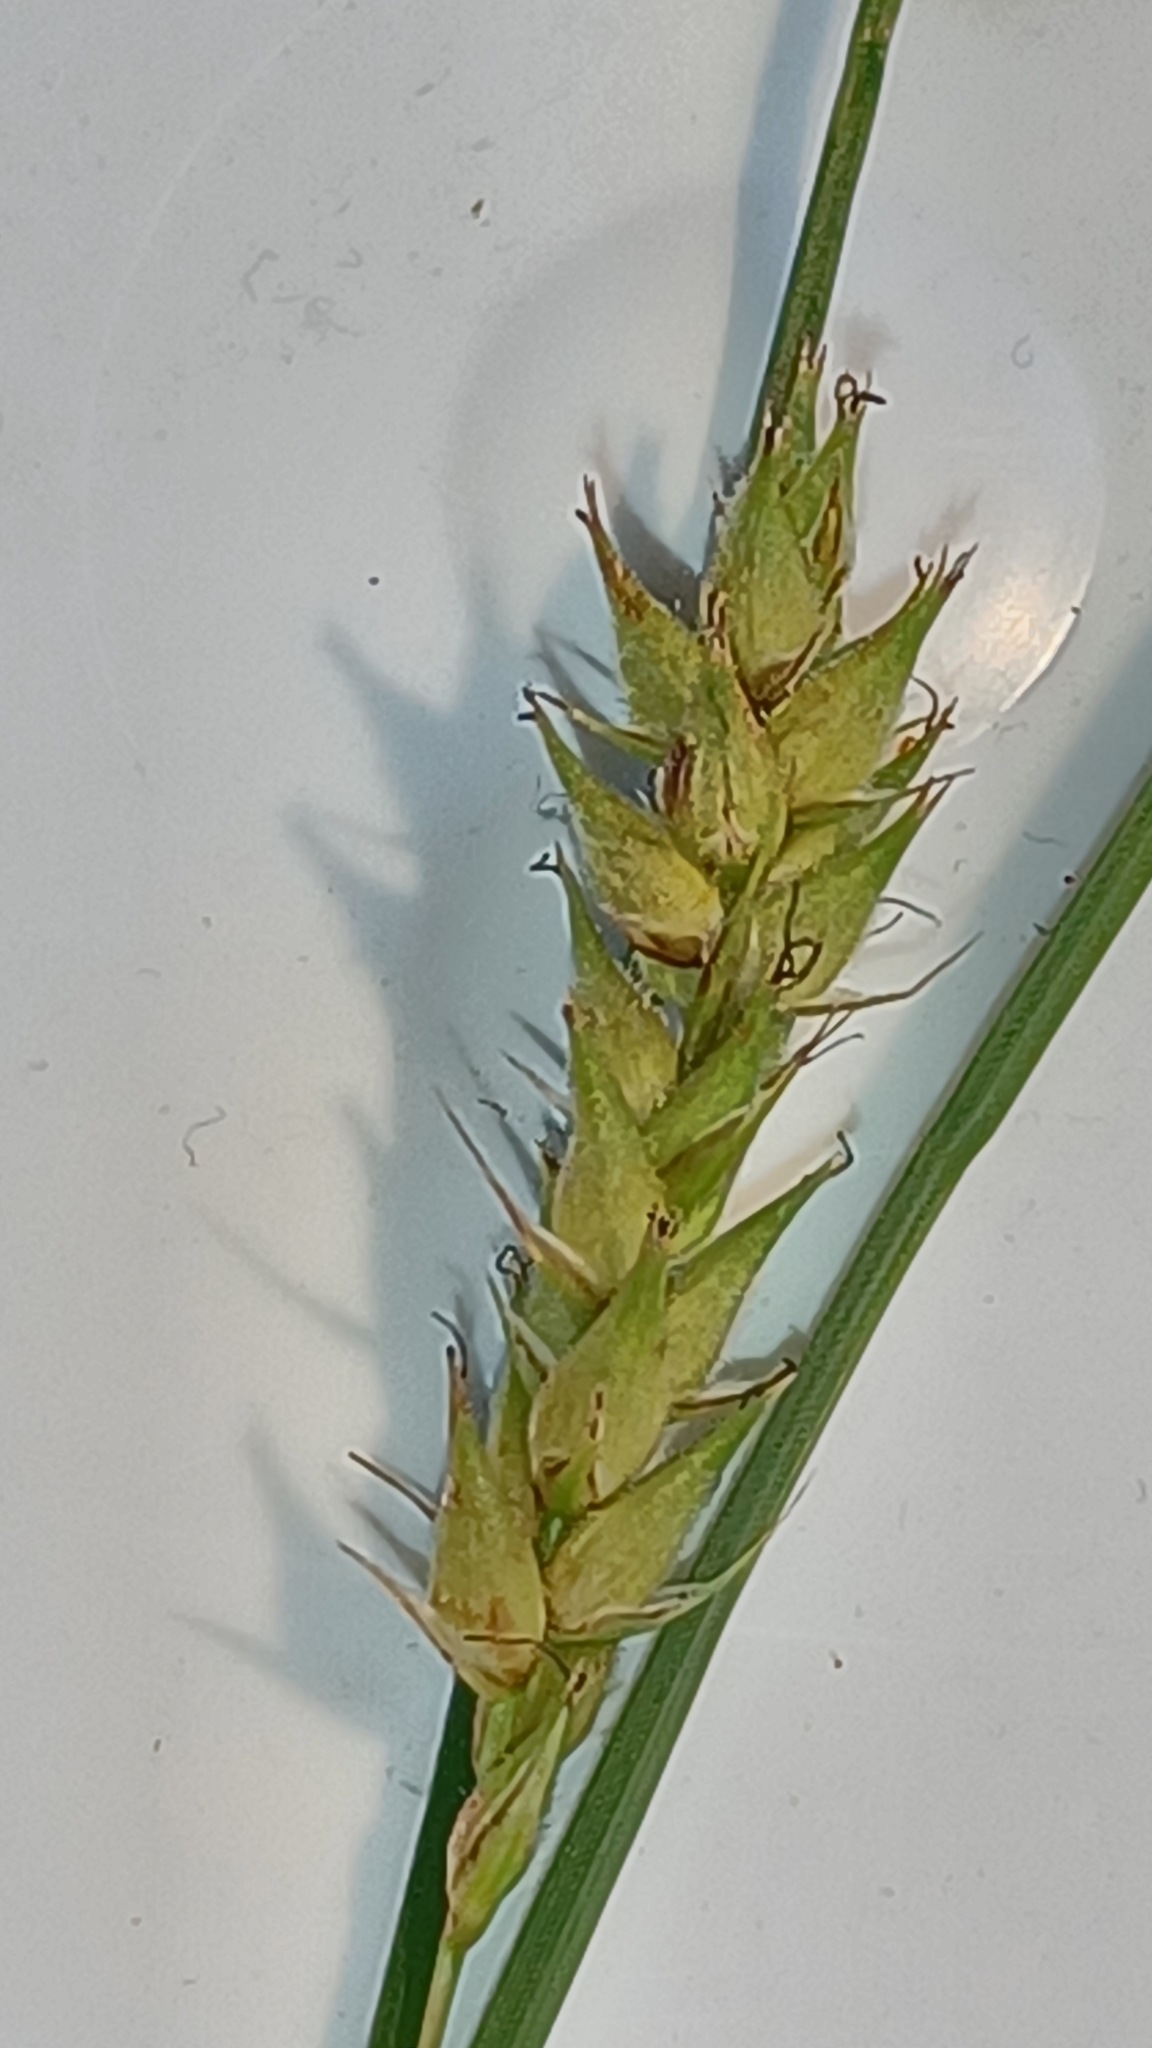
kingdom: Plantae
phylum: Tracheophyta
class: Liliopsida
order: Poales
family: Cyperaceae
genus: Carex
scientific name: Carex hirta
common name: Håret star
